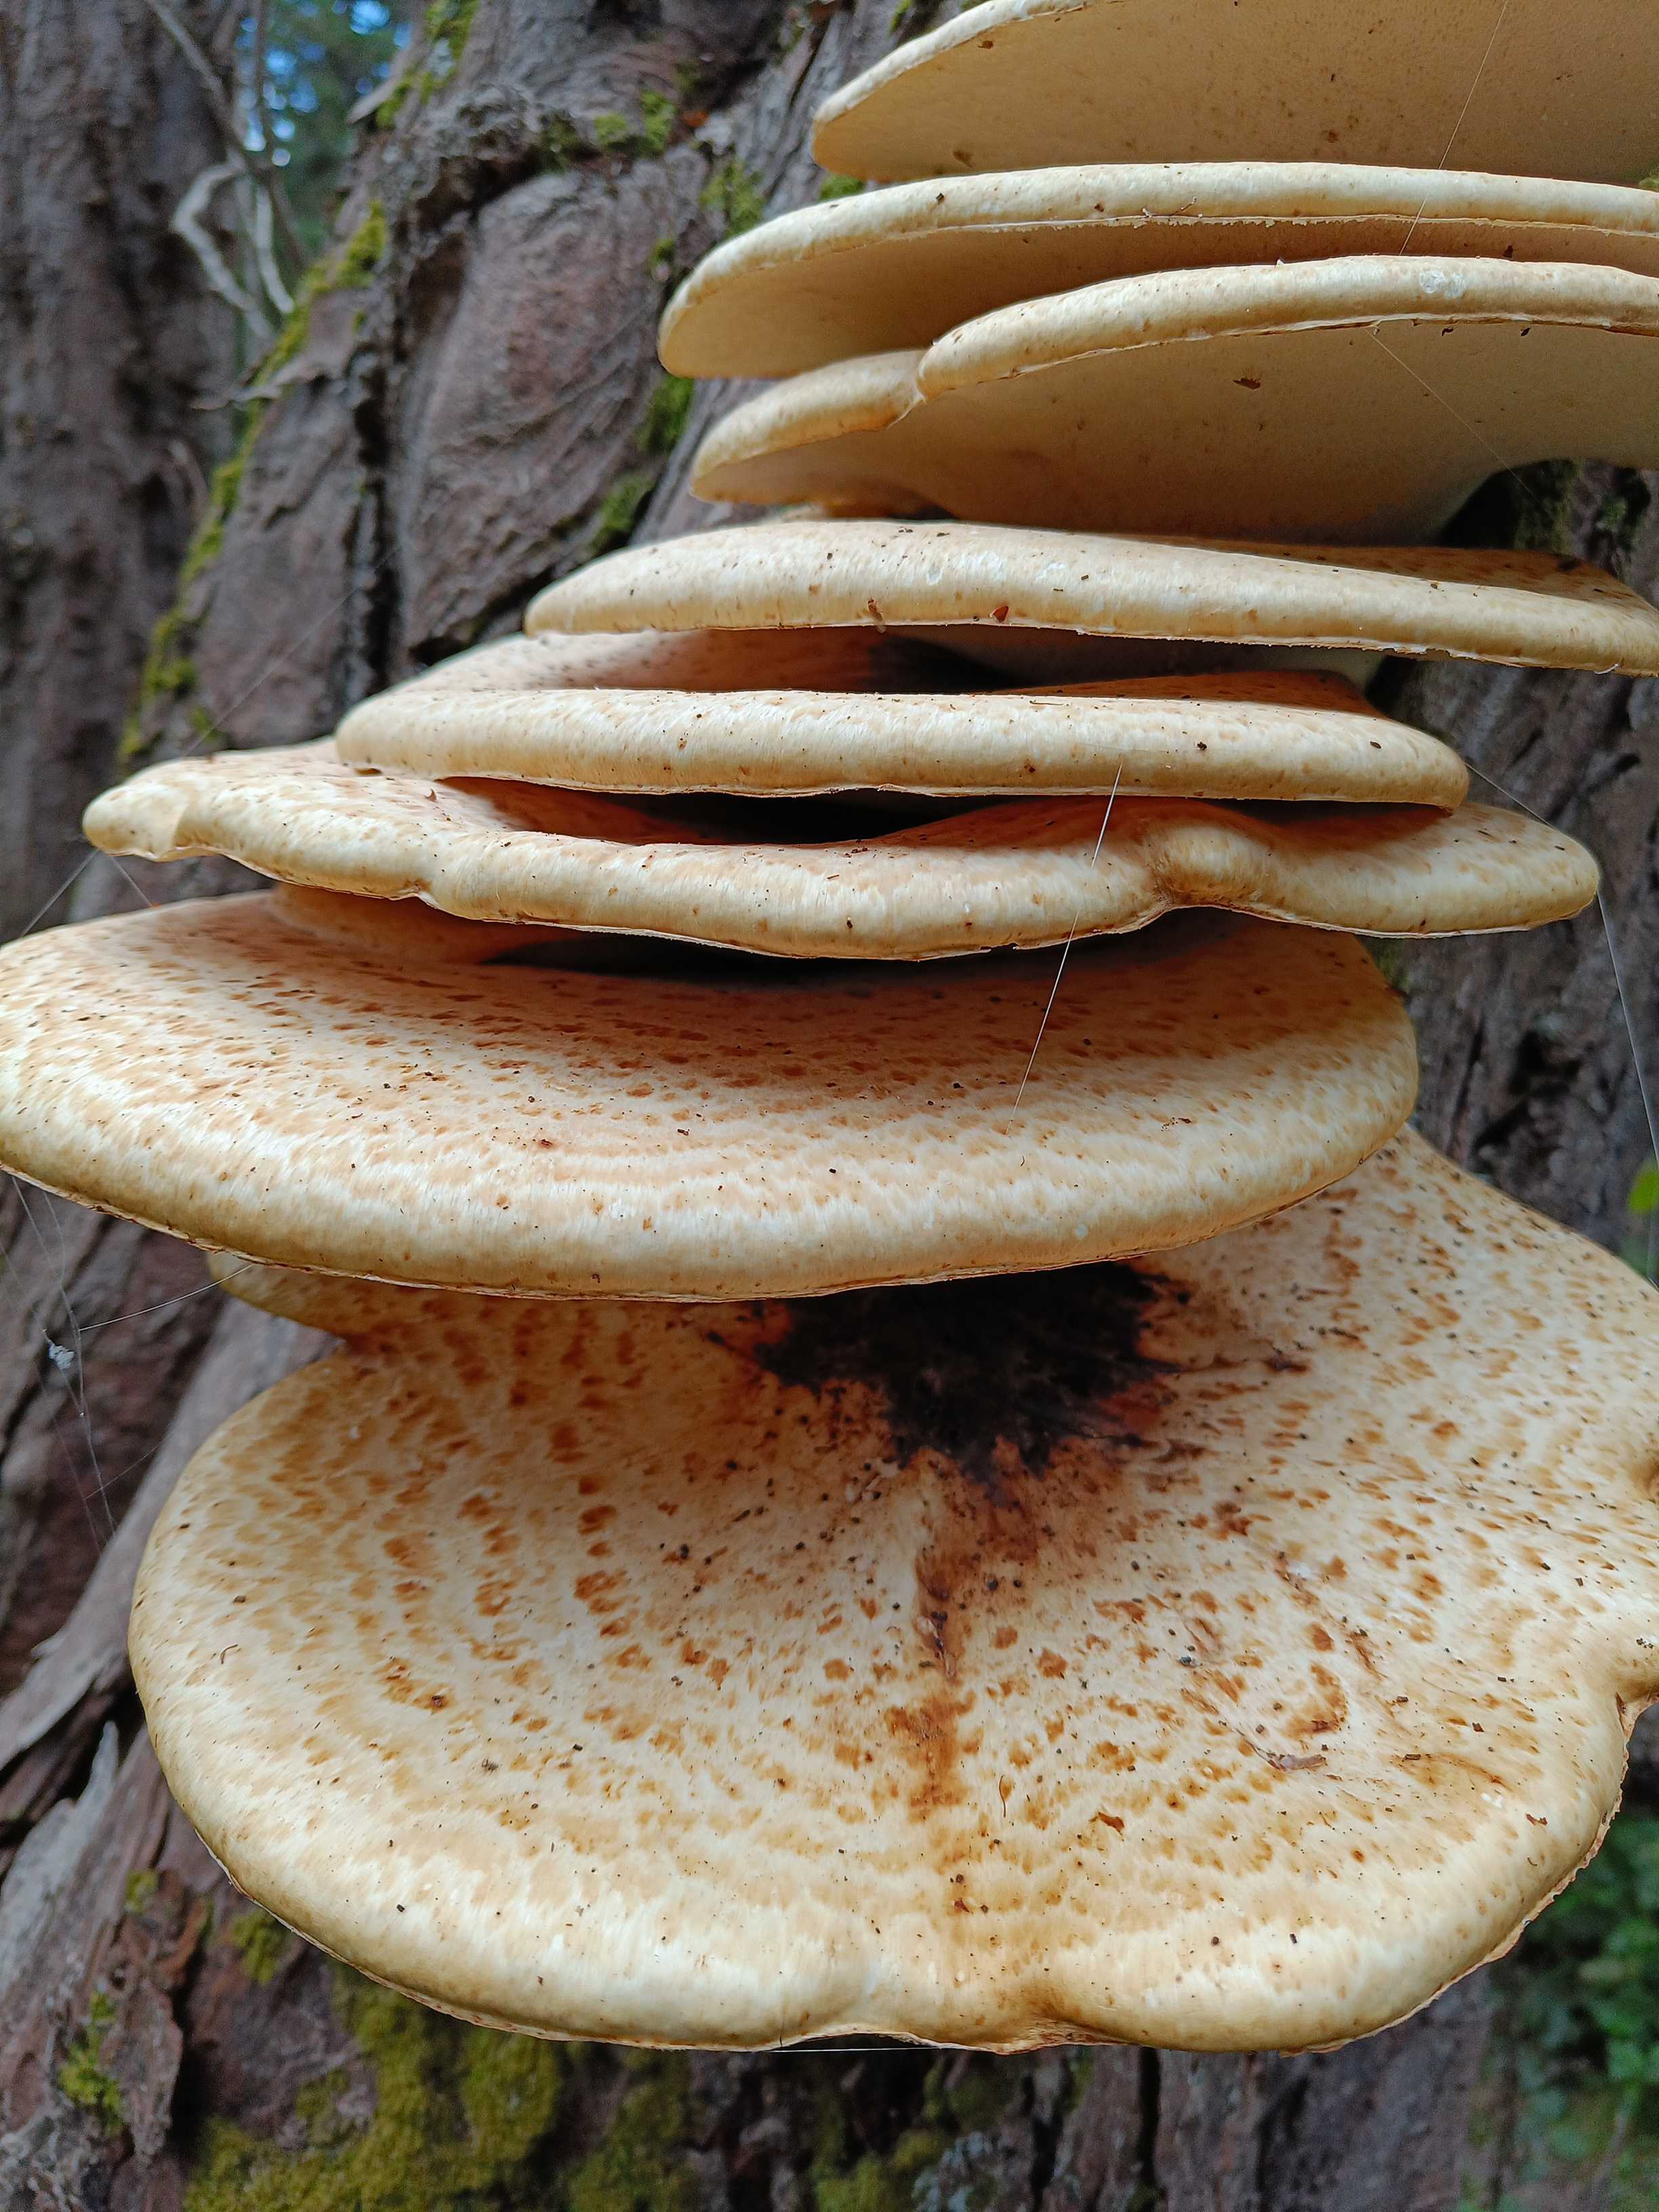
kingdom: Fungi
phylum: Basidiomycota
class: Agaricomycetes
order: Polyporales
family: Polyporaceae
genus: Cerioporus
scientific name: Cerioporus squamosus
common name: skællet stilkporesvamp
